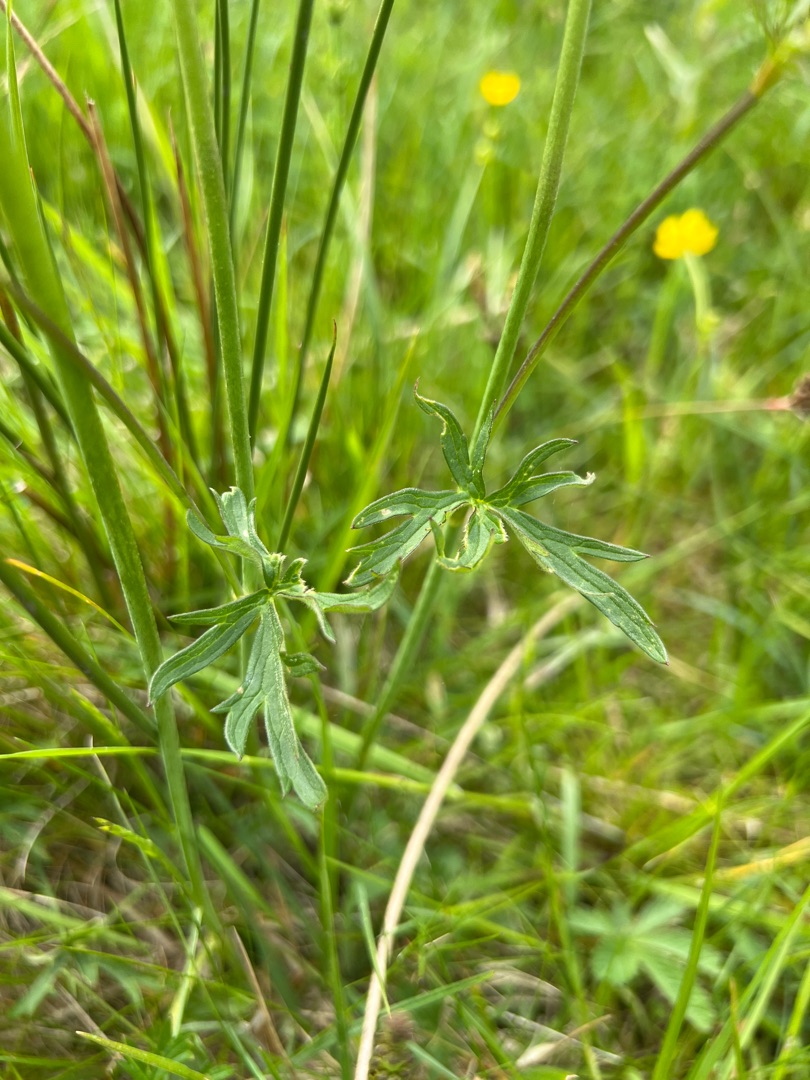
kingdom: Plantae
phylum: Tracheophyta
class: Magnoliopsida
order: Ranunculales
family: Ranunculaceae
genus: Ranunculus
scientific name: Ranunculus acris
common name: Bidende ranunkel
